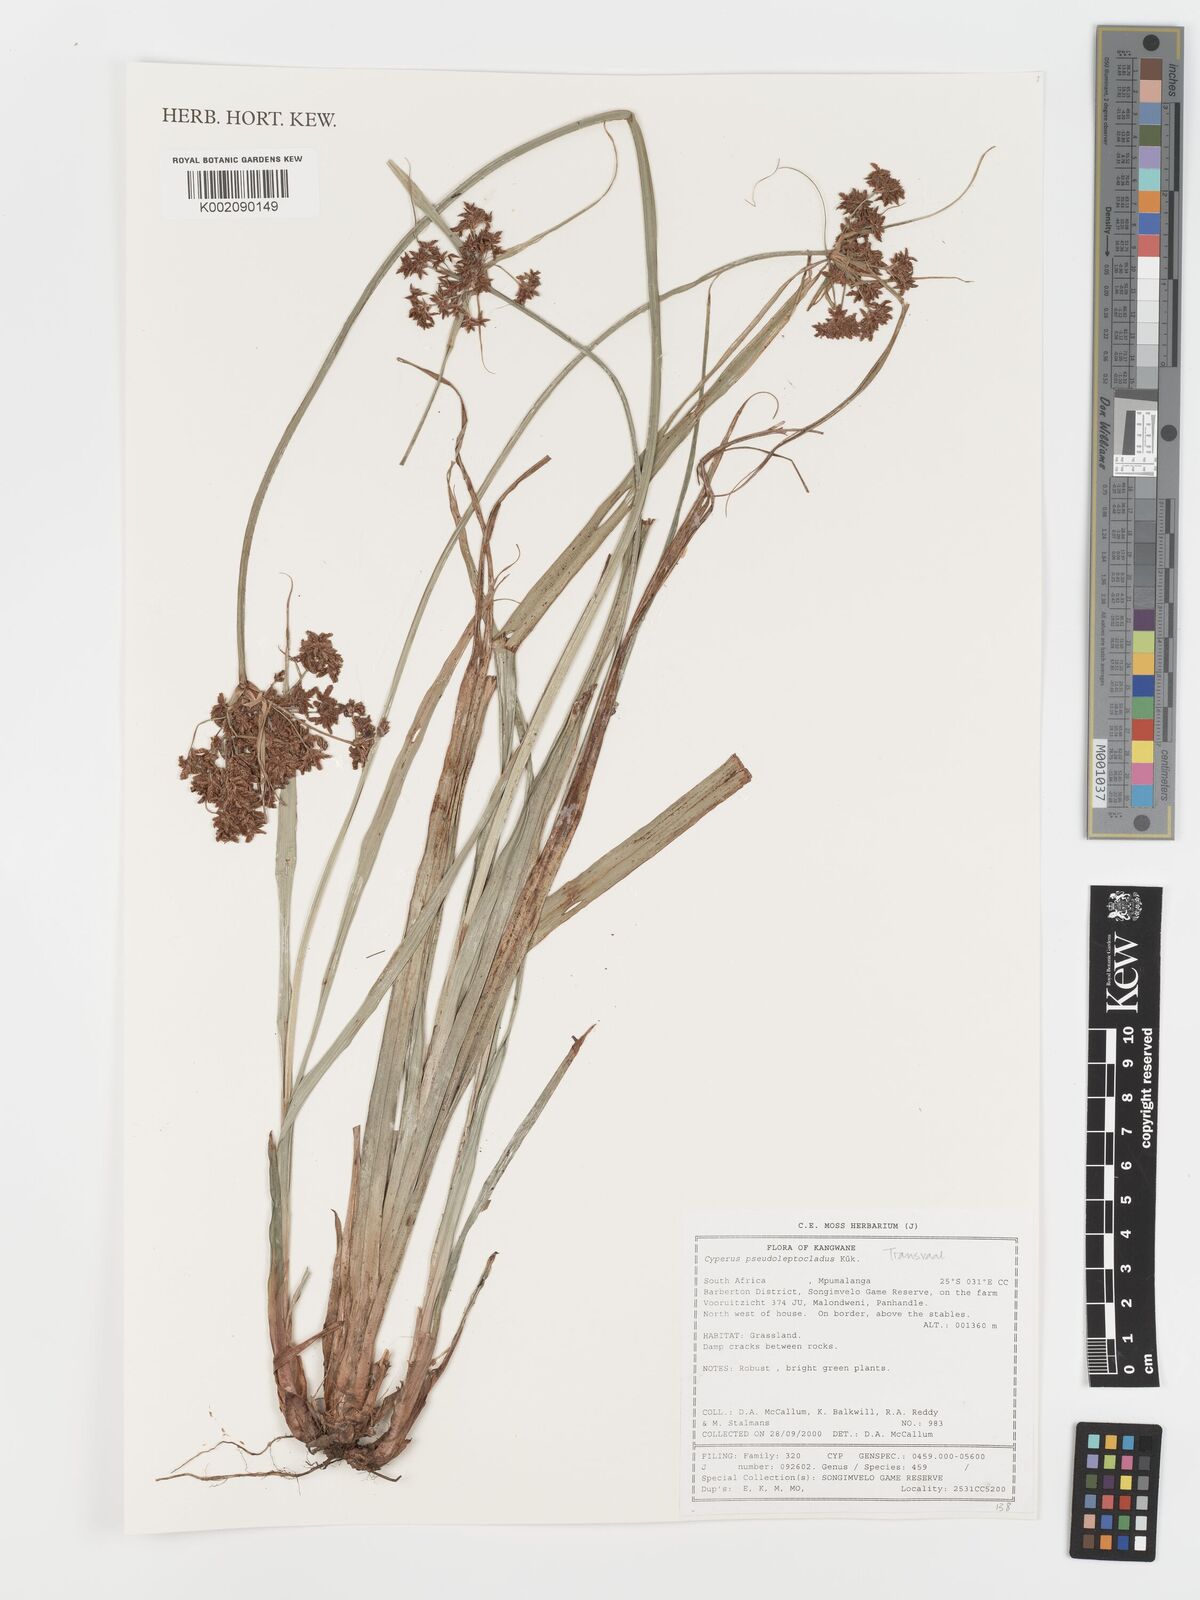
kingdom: Plantae
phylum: Tracheophyta
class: Liliopsida
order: Poales
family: Cyperaceae
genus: Cyperus
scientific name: Cyperus glaucophyllus
